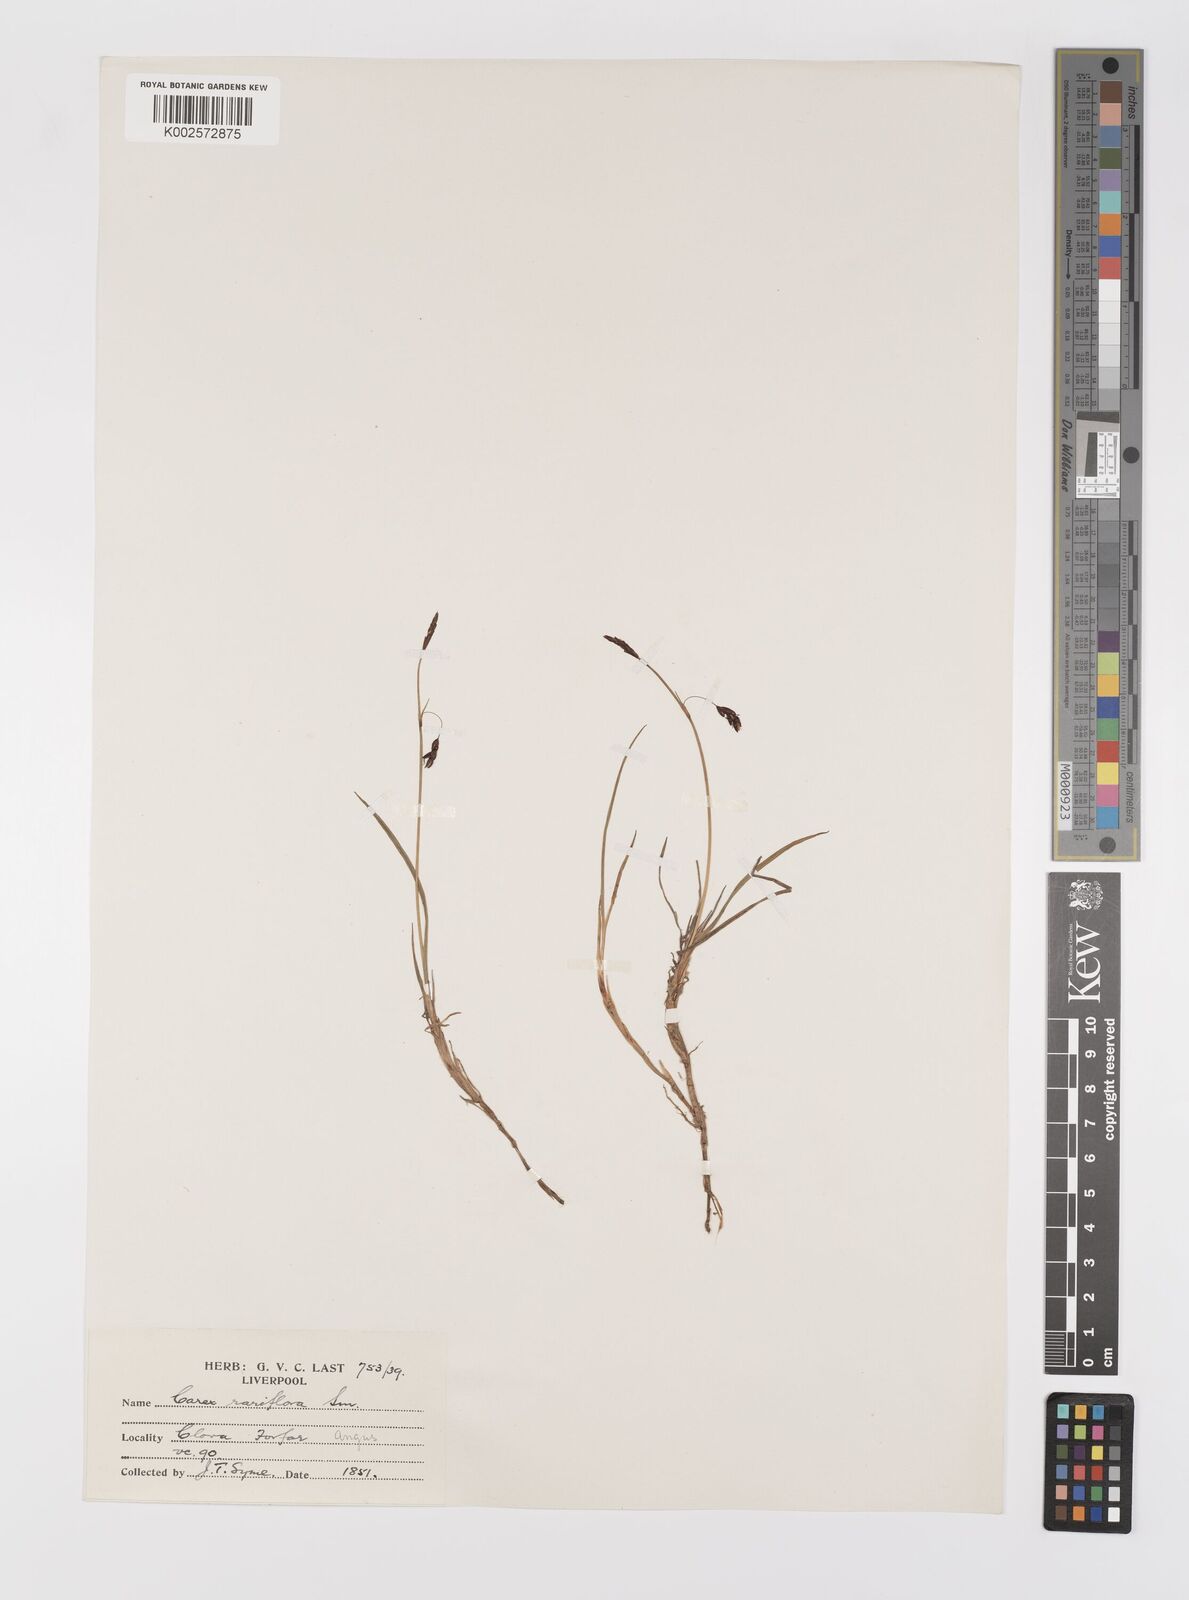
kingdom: Plantae
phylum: Tracheophyta
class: Liliopsida
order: Poales
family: Cyperaceae
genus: Carex
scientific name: Carex rariflora
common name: Loose-flowered alpine sedge
